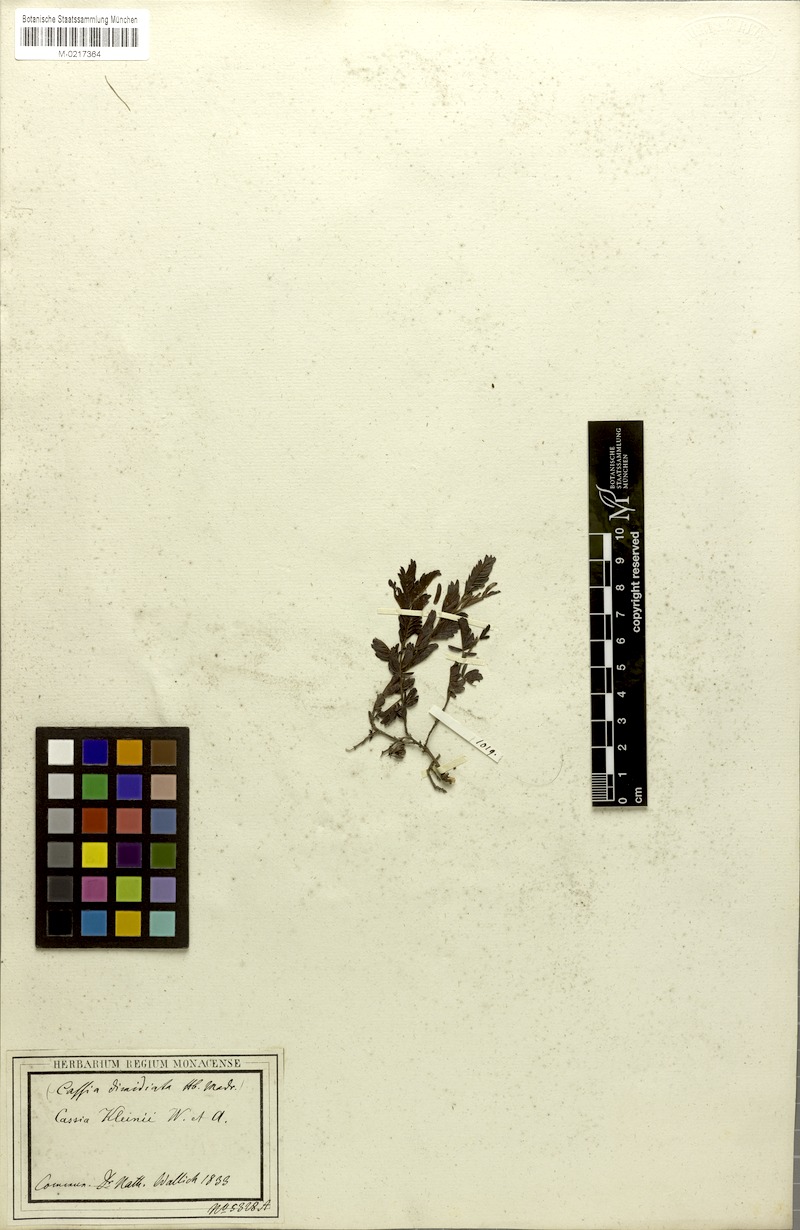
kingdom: Plantae
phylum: Tracheophyta
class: Magnoliopsida
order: Fabales
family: Fabaceae
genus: Chamaecrista
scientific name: Chamaecrista kleinii
